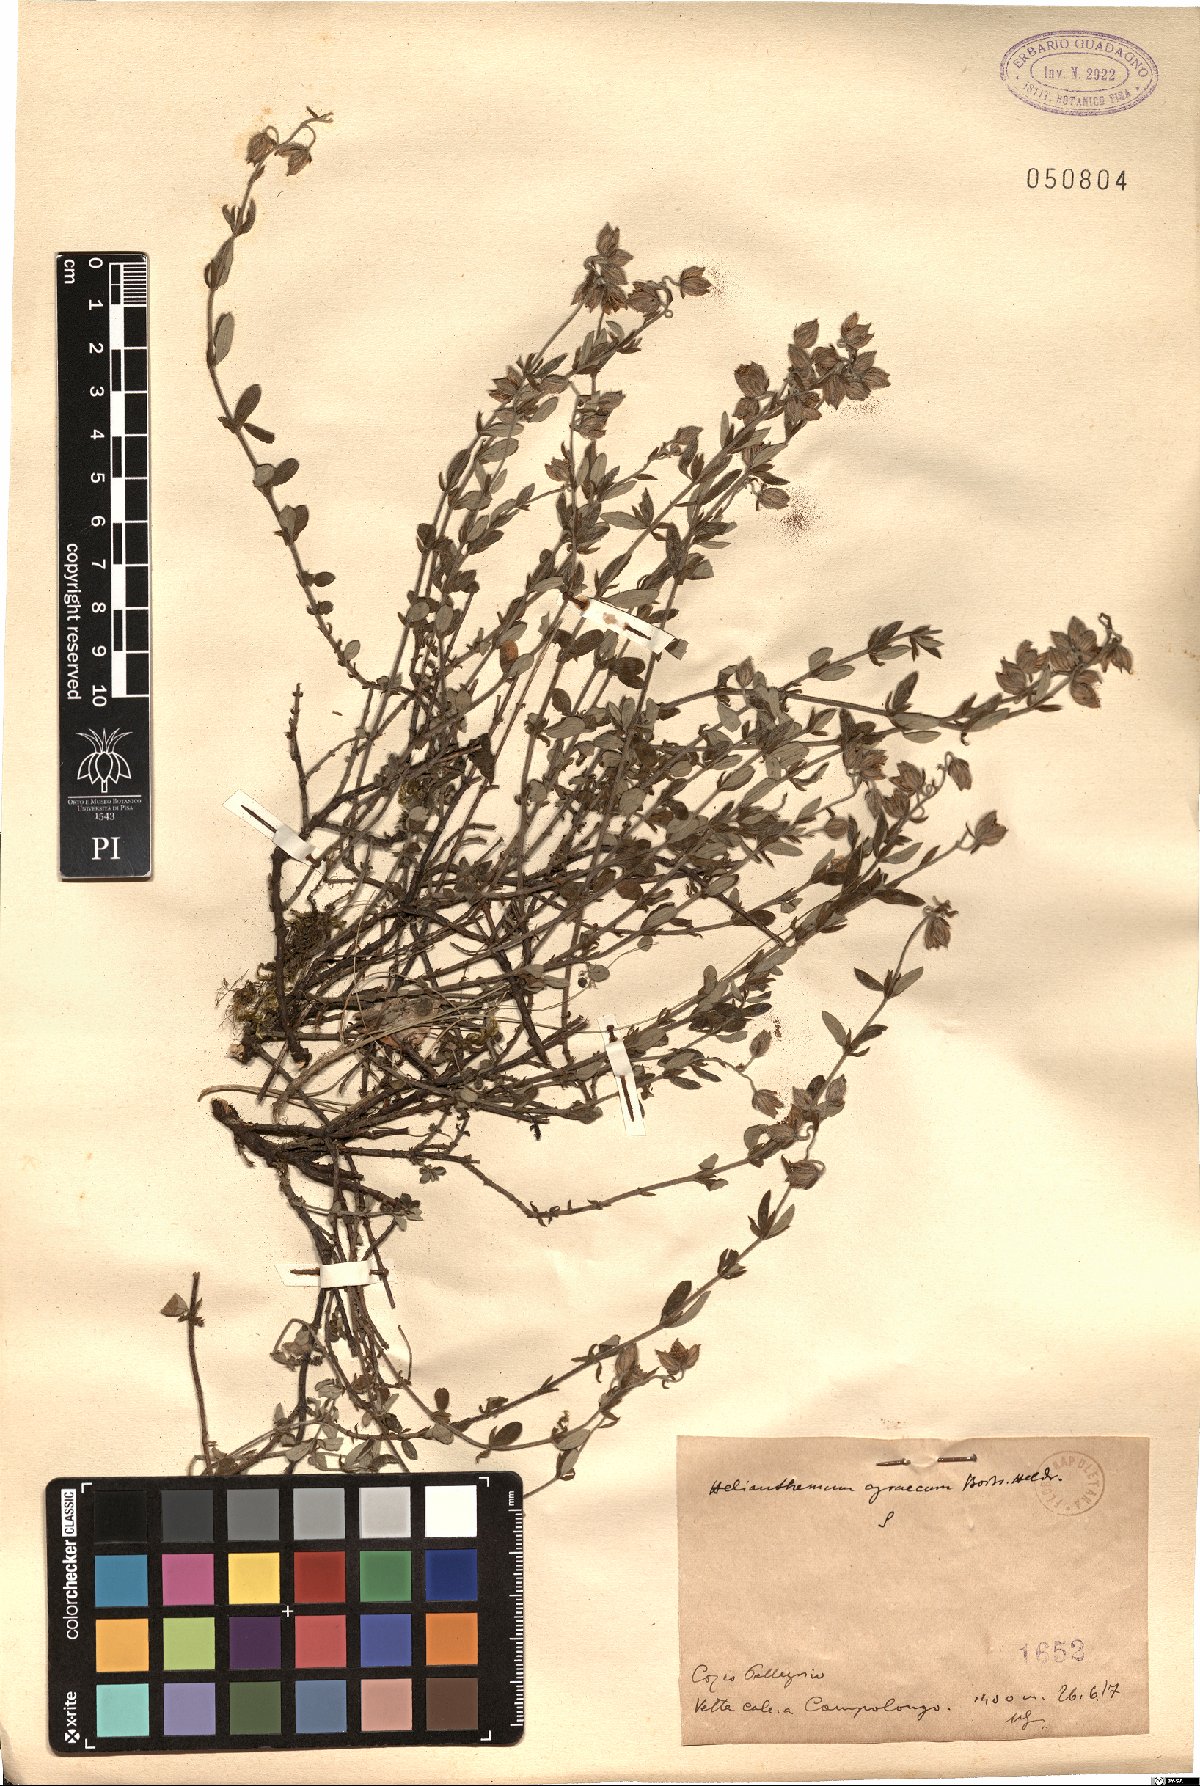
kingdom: Plantae
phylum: Tracheophyta
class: Magnoliopsida
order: Malvales
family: Cistaceae
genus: Helianthemum
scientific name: Helianthemum nummularium
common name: Common rock-rose
